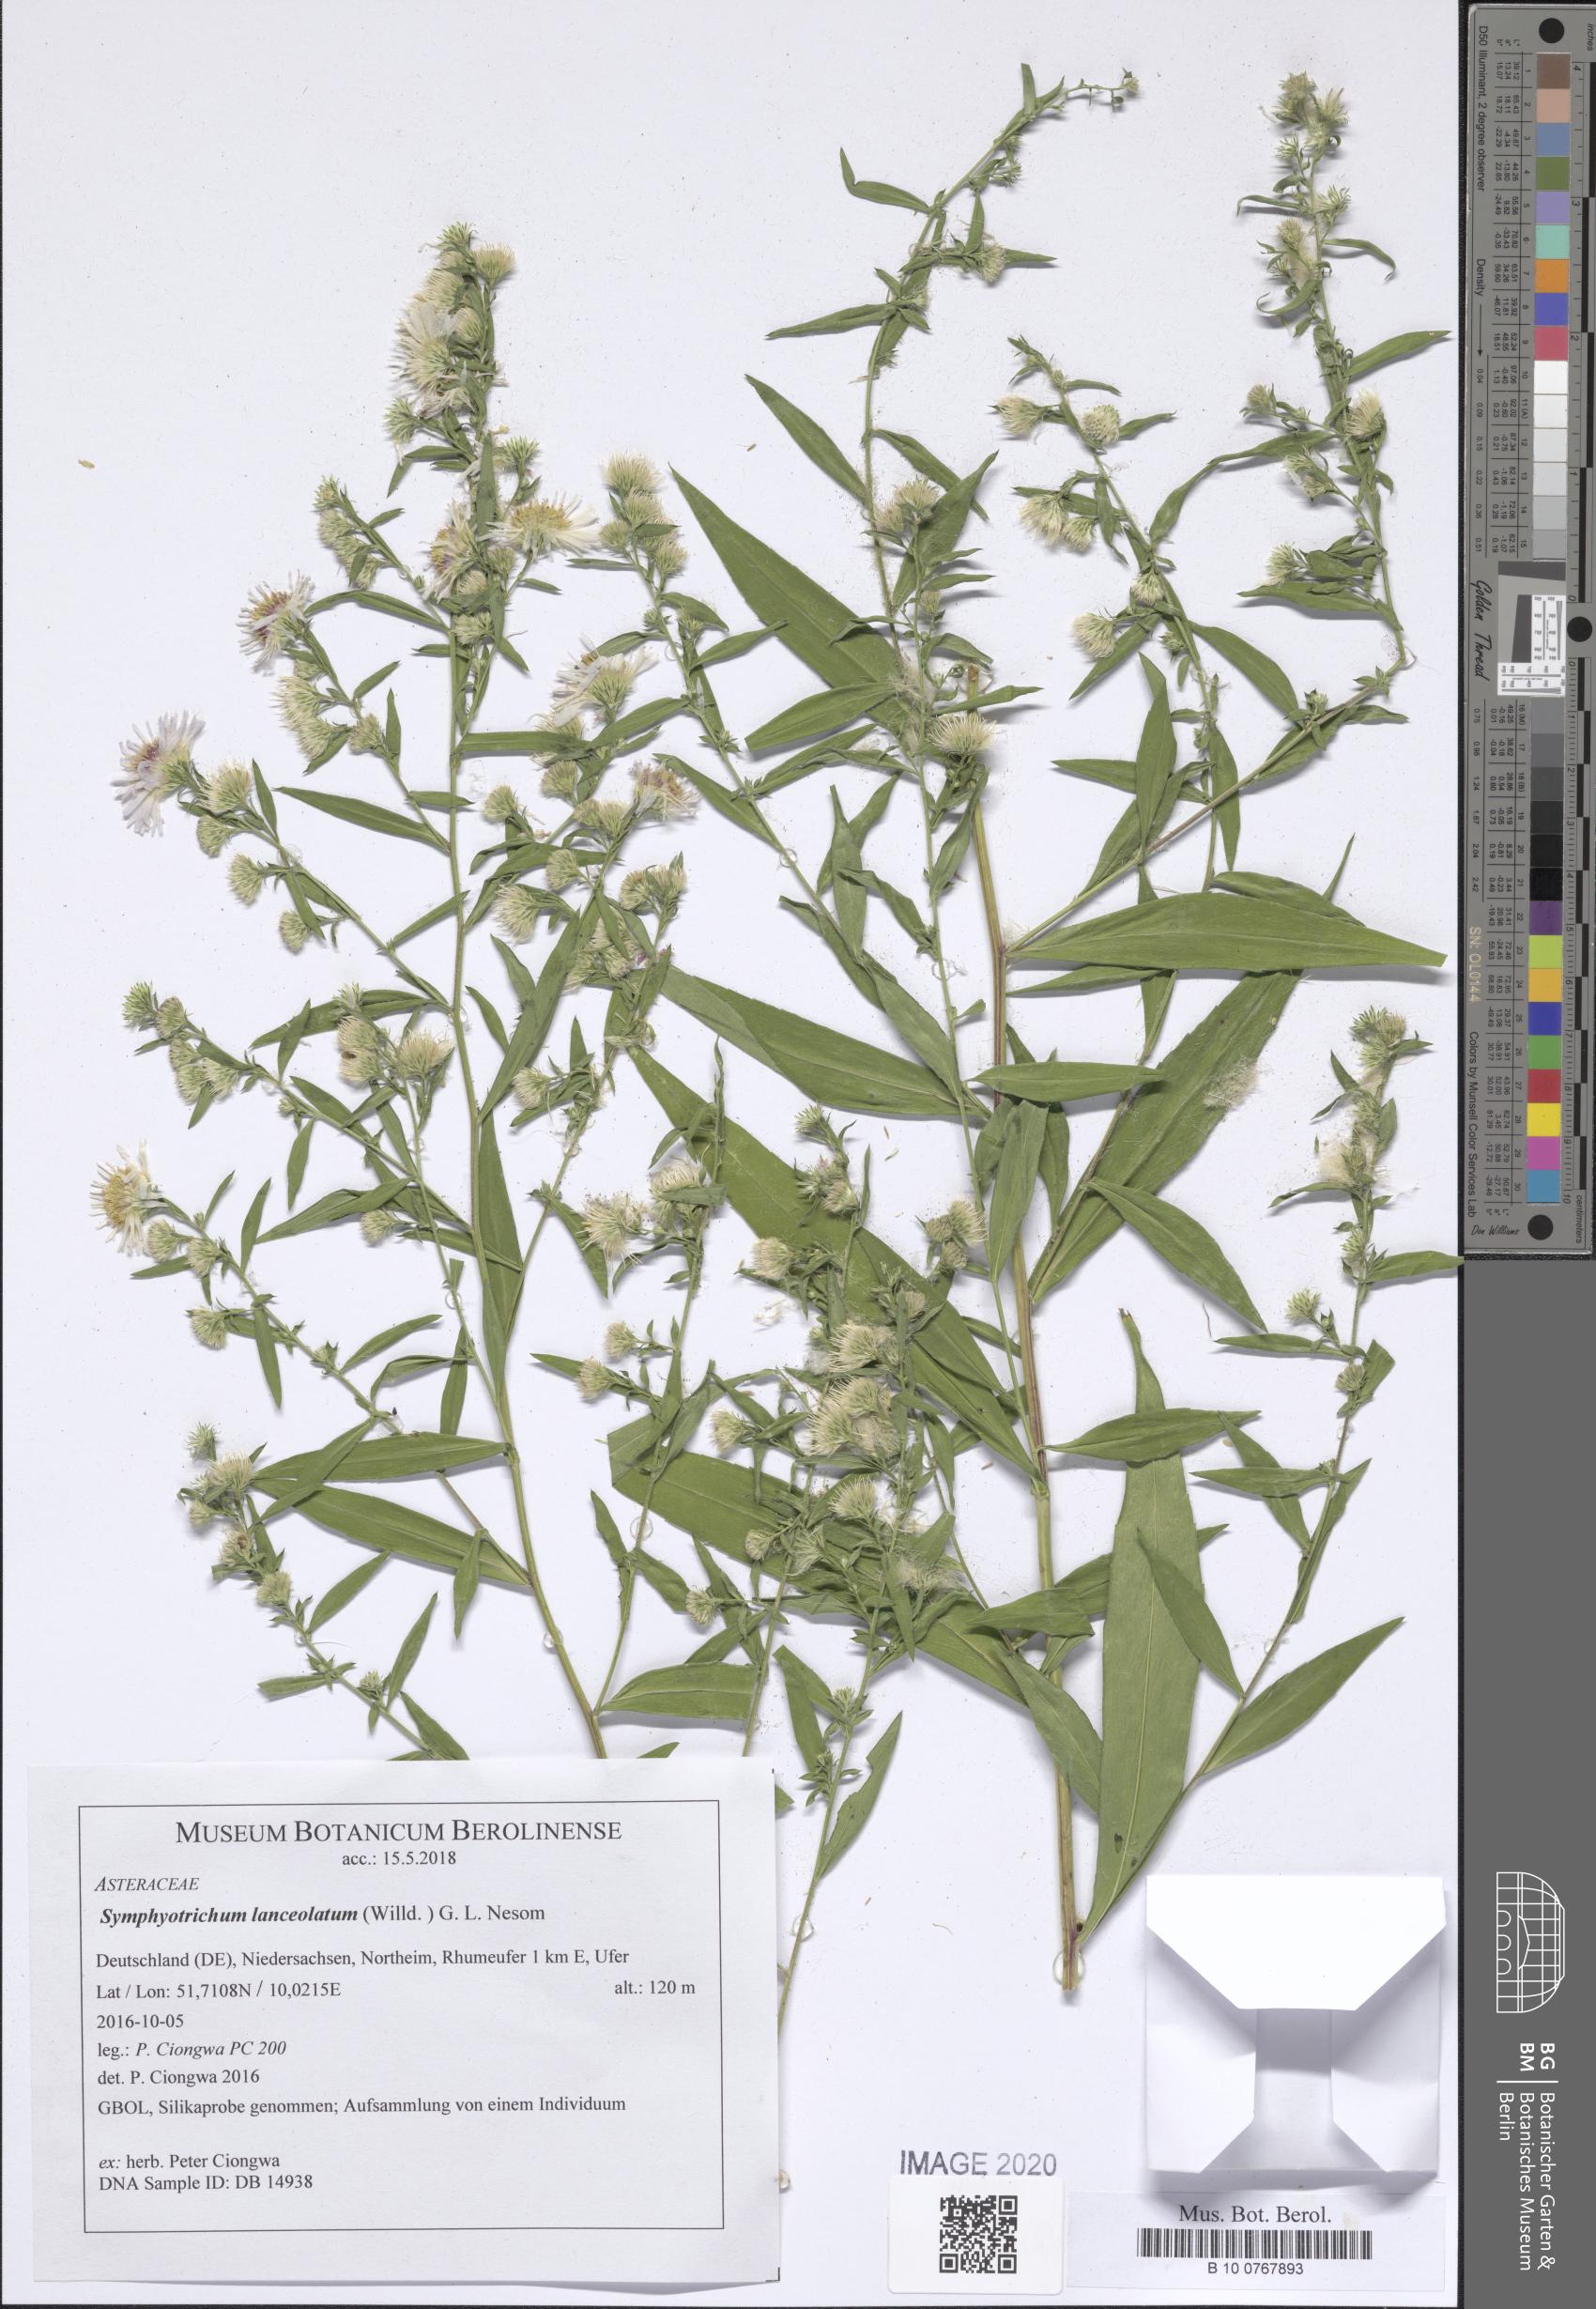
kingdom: Plantae
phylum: Tracheophyta
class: Magnoliopsida
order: Asterales
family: Asteraceae
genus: Symphyotrichum
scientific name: Symphyotrichum lanceolatum
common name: Panicled aster
